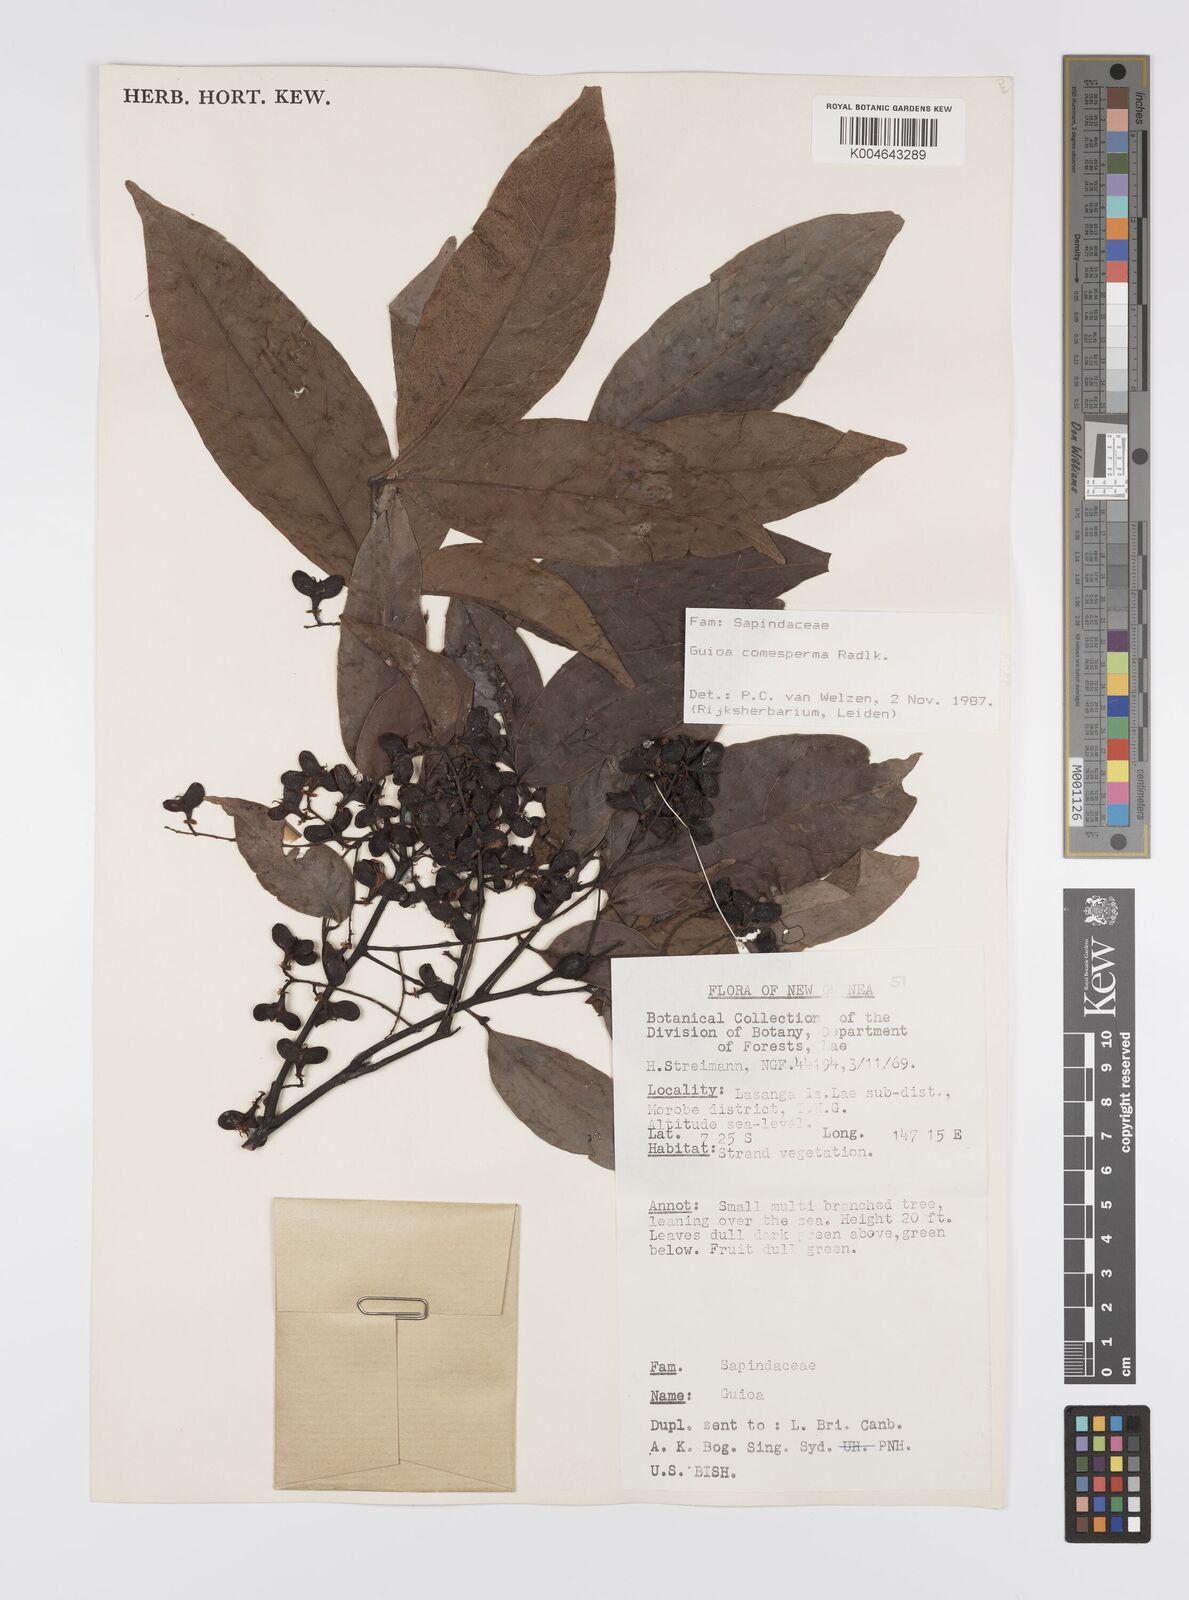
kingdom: Plantae
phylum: Tracheophyta
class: Magnoliopsida
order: Sapindales
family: Sapindaceae
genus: Guioa
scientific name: Guioa comesperma
